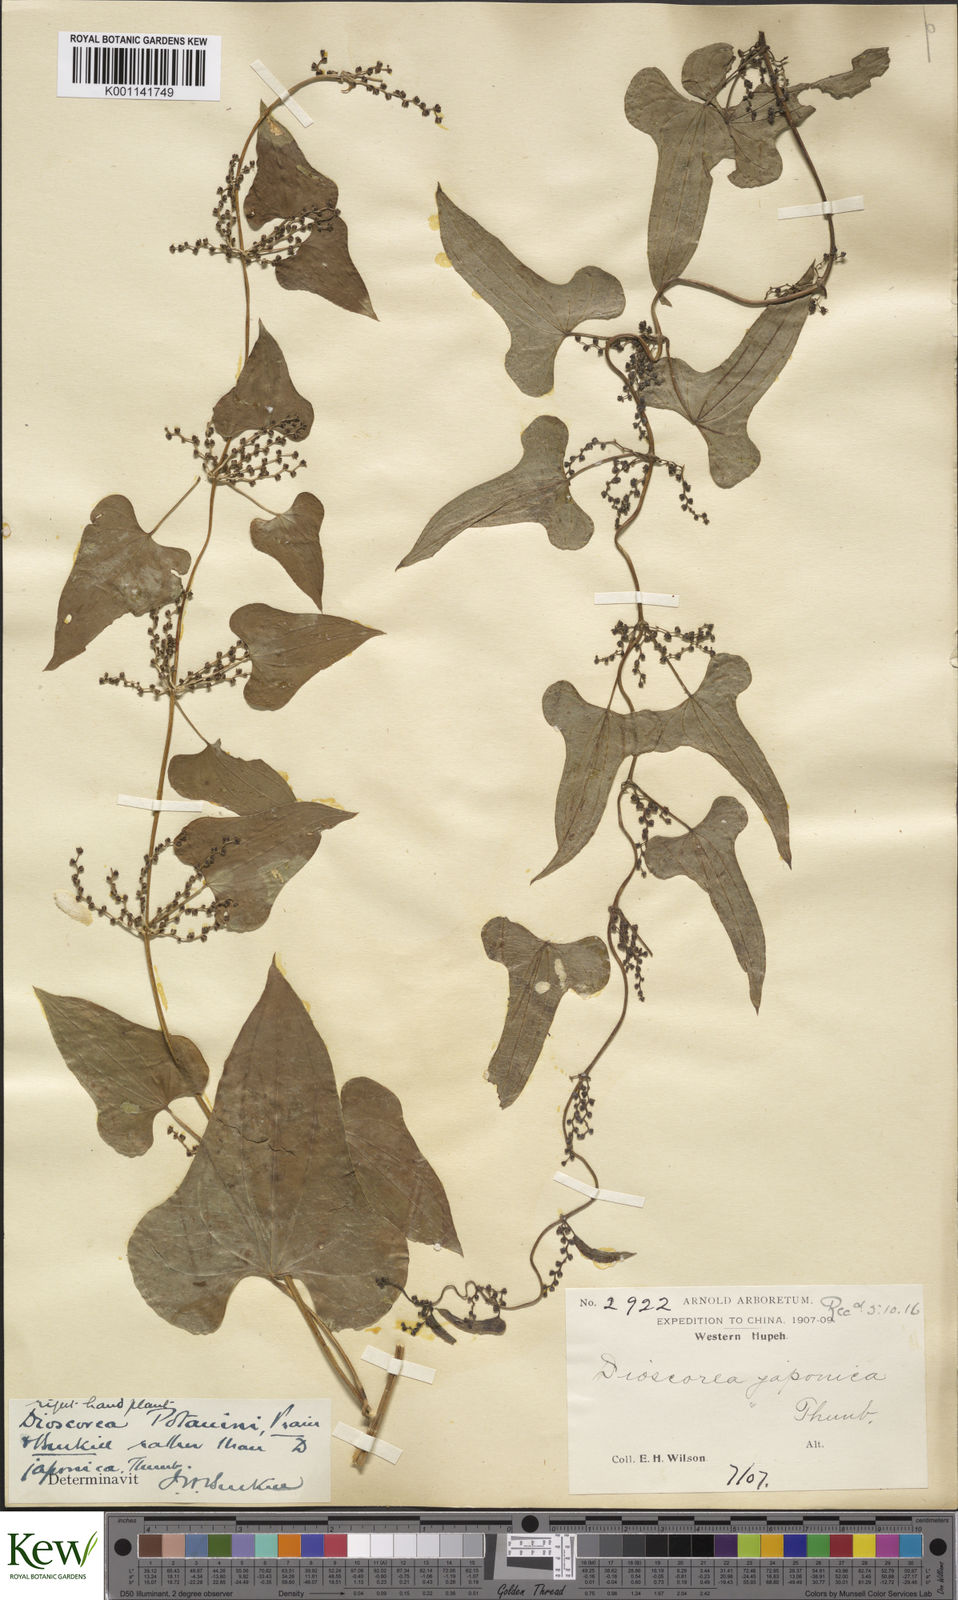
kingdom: Plantae
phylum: Tracheophyta
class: Liliopsida
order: Dioscoreales
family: Dioscoreaceae
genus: Dioscorea
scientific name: Dioscorea polystachya
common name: Chinese yam
